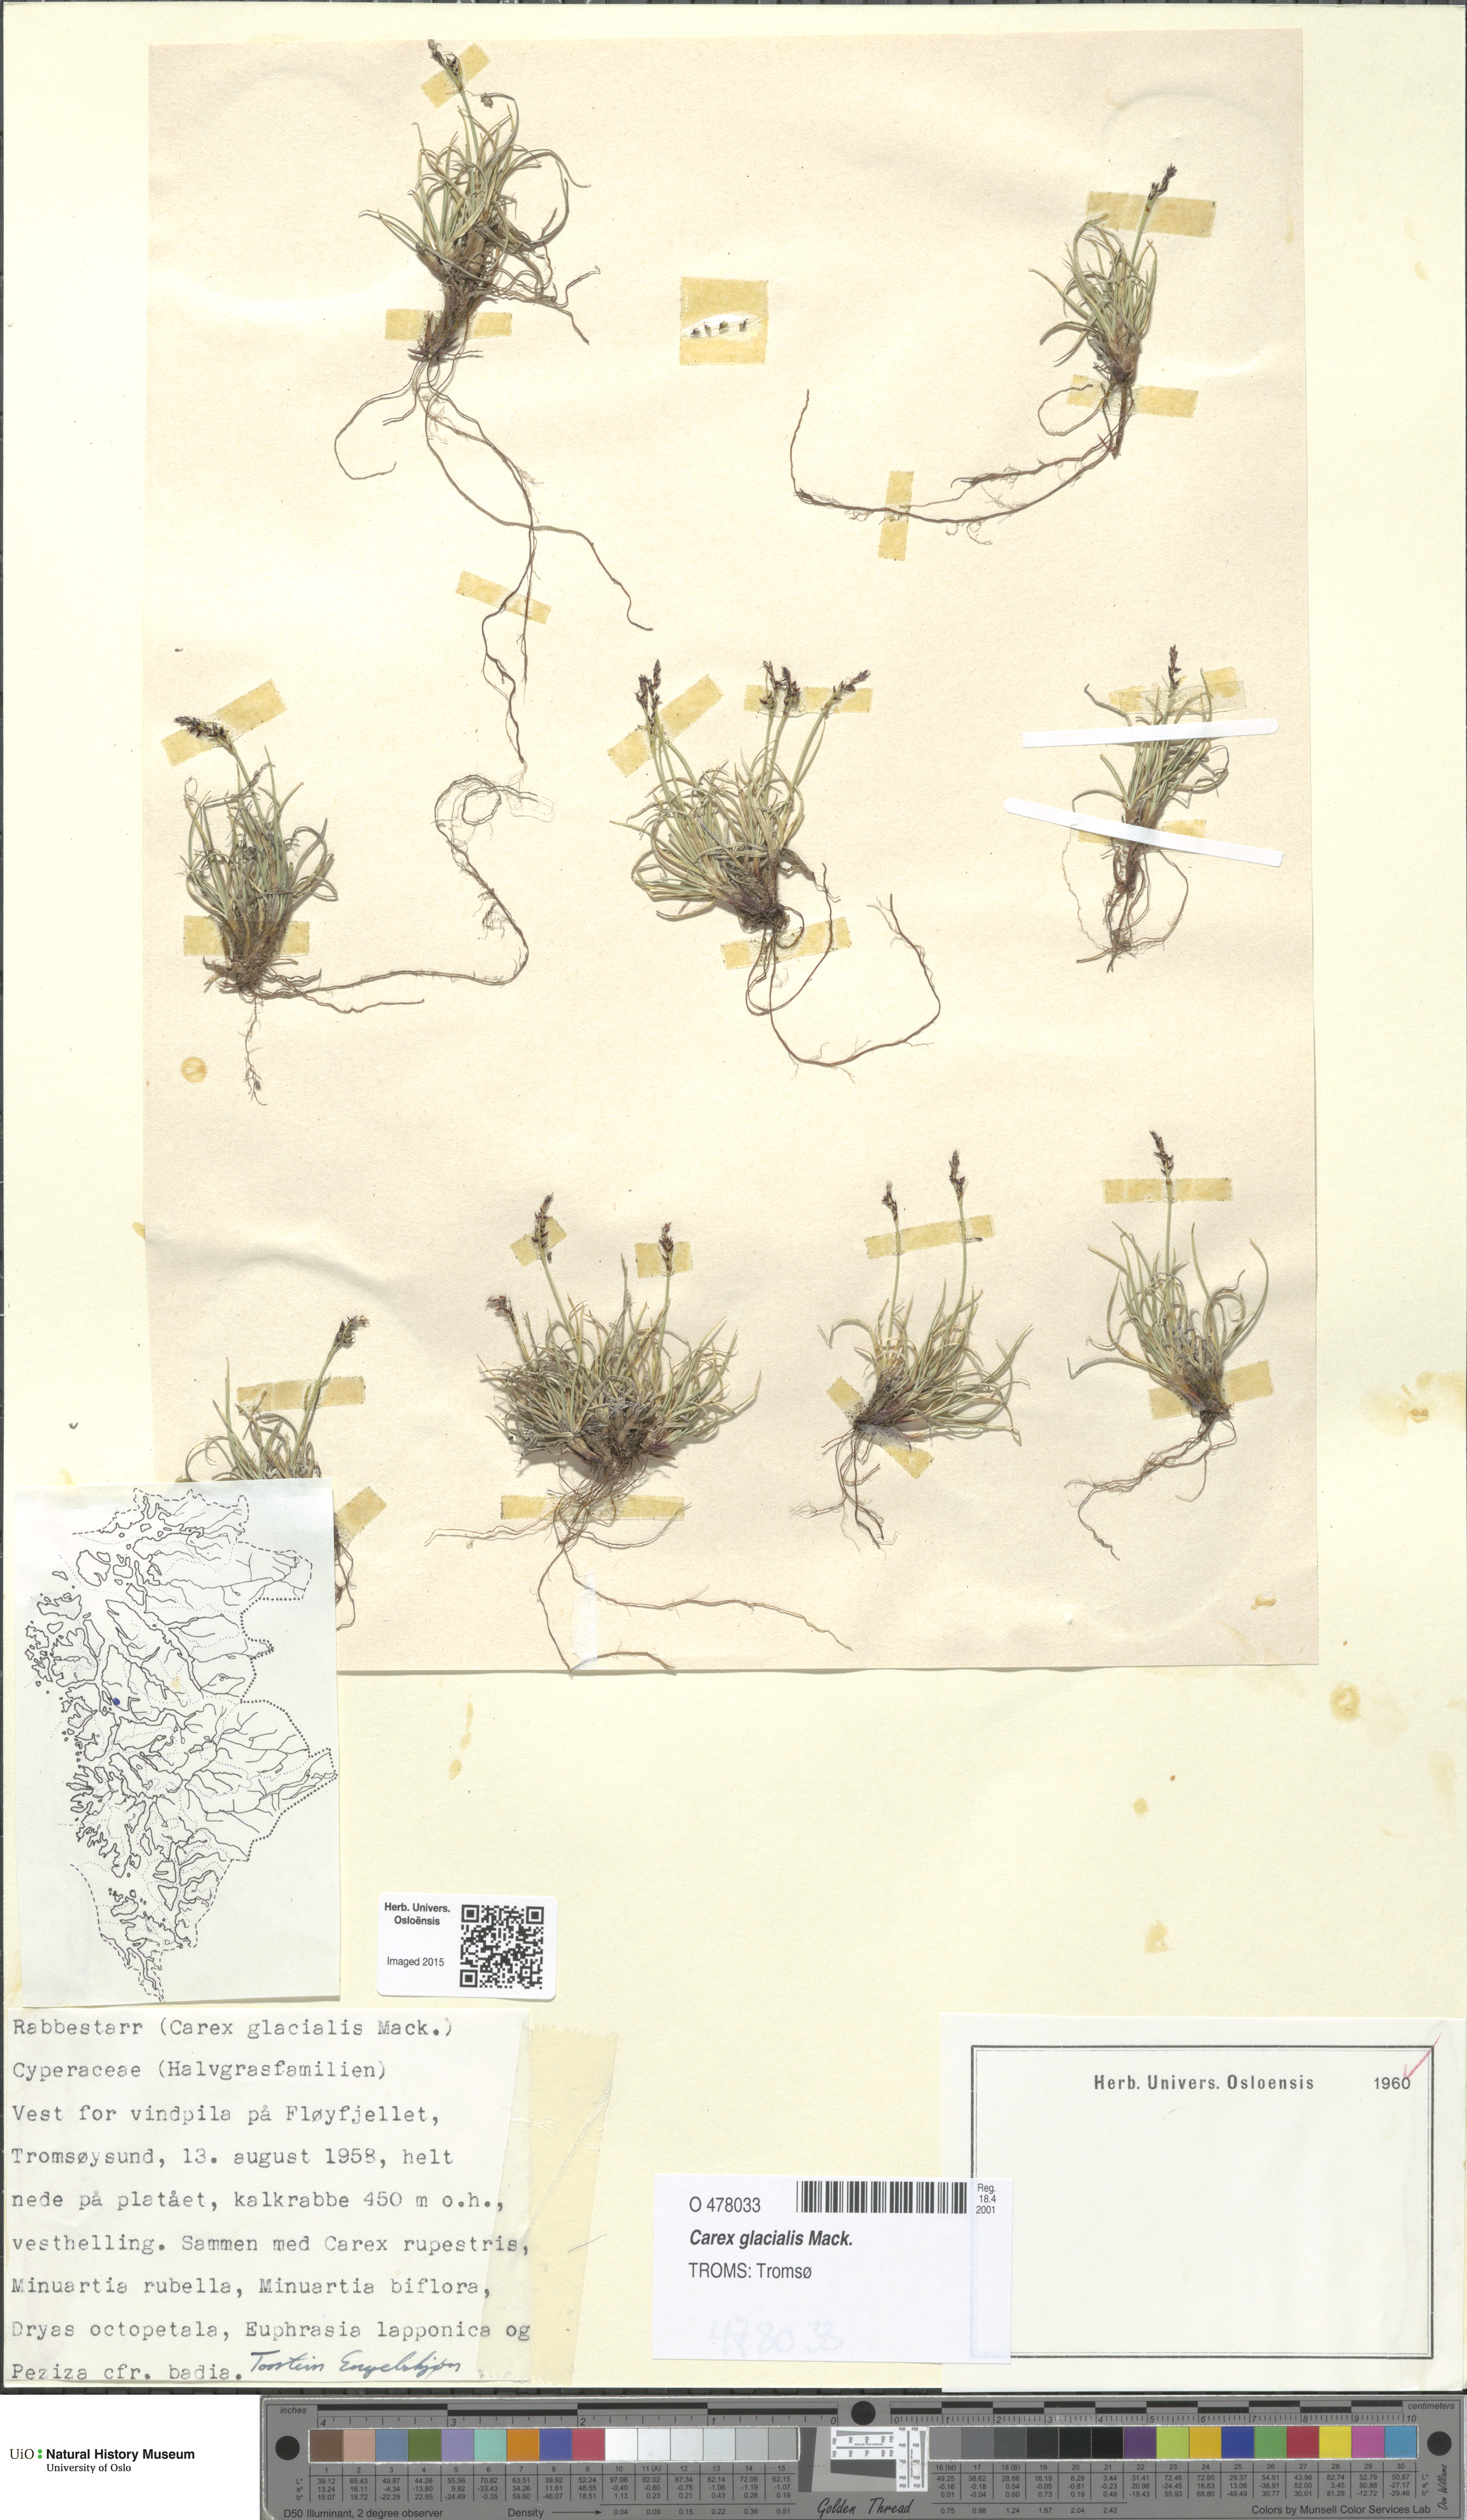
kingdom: Plantae
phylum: Tracheophyta
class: Liliopsida
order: Poales
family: Cyperaceae
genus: Carex
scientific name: Carex glacialis
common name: Newfoundland sedge
